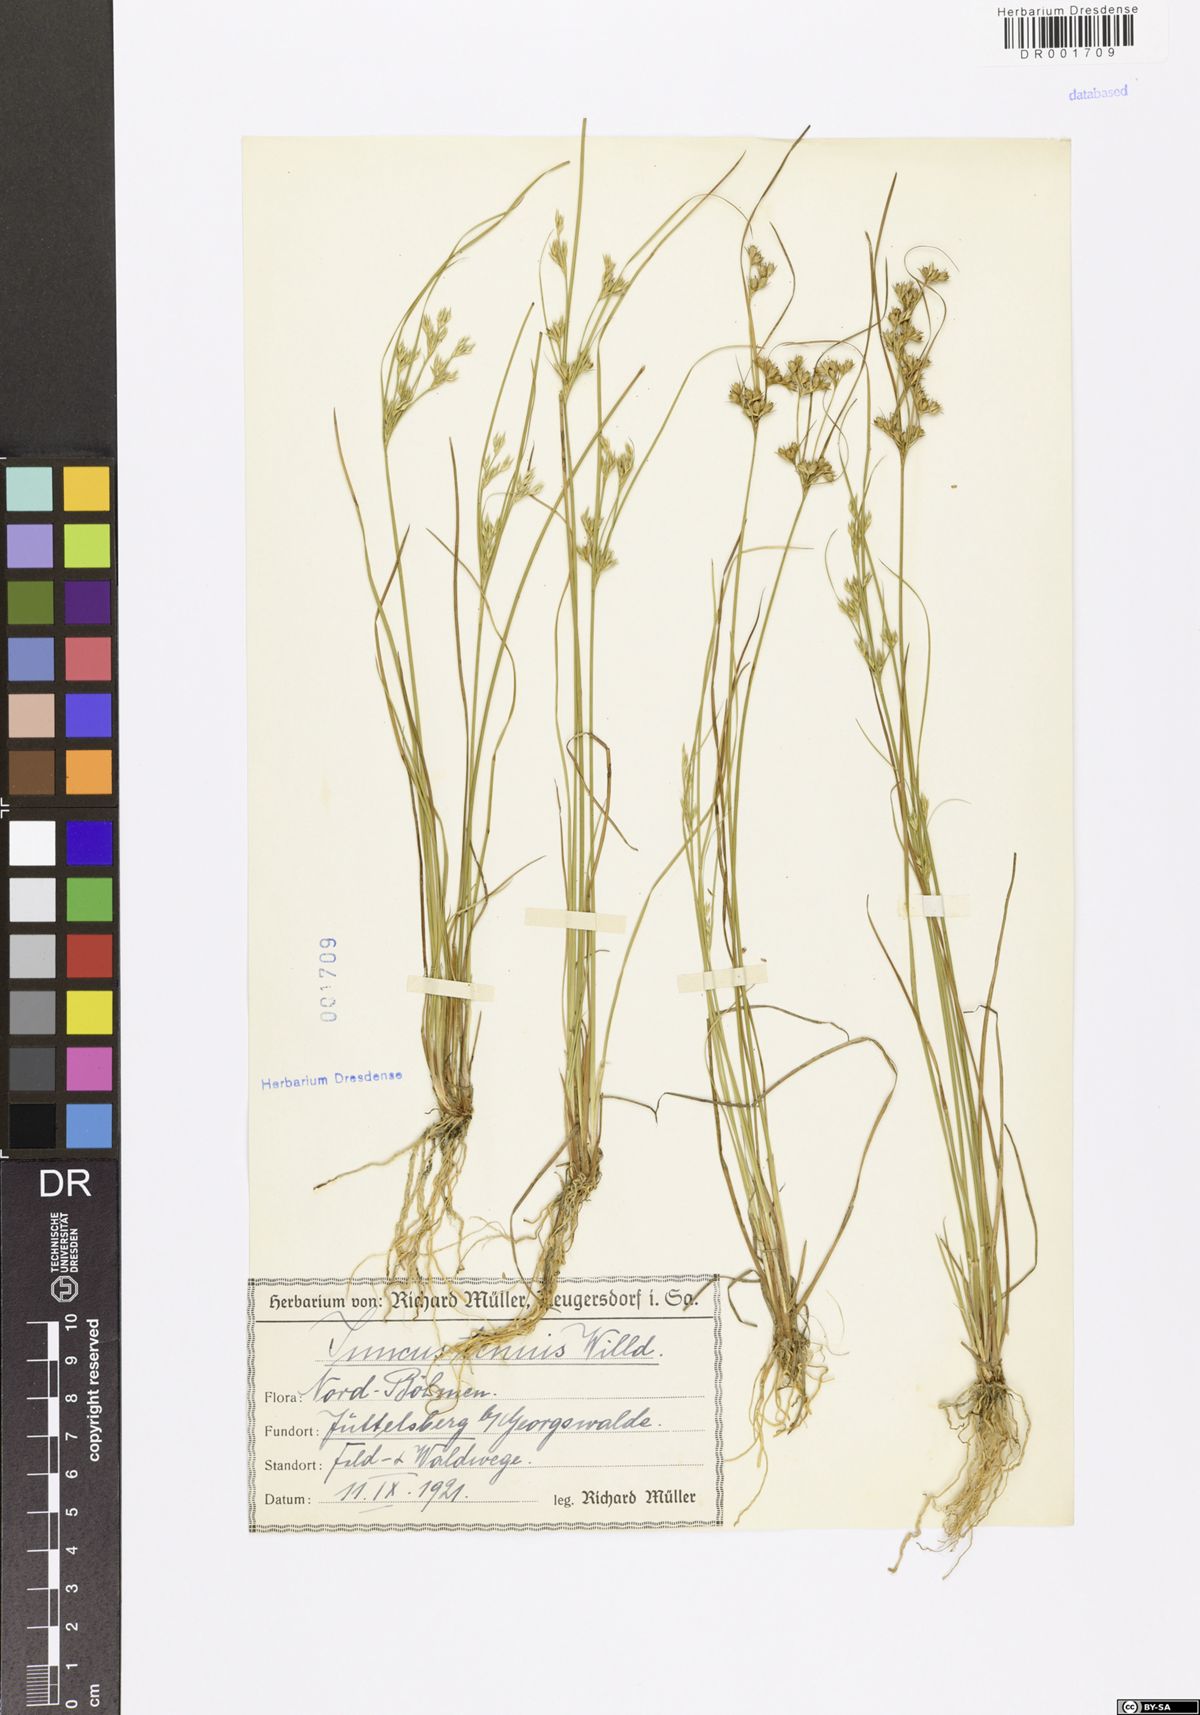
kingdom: Plantae
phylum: Tracheophyta
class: Liliopsida
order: Poales
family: Juncaceae
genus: Juncus
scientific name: Juncus tenuis
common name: Slender rush
